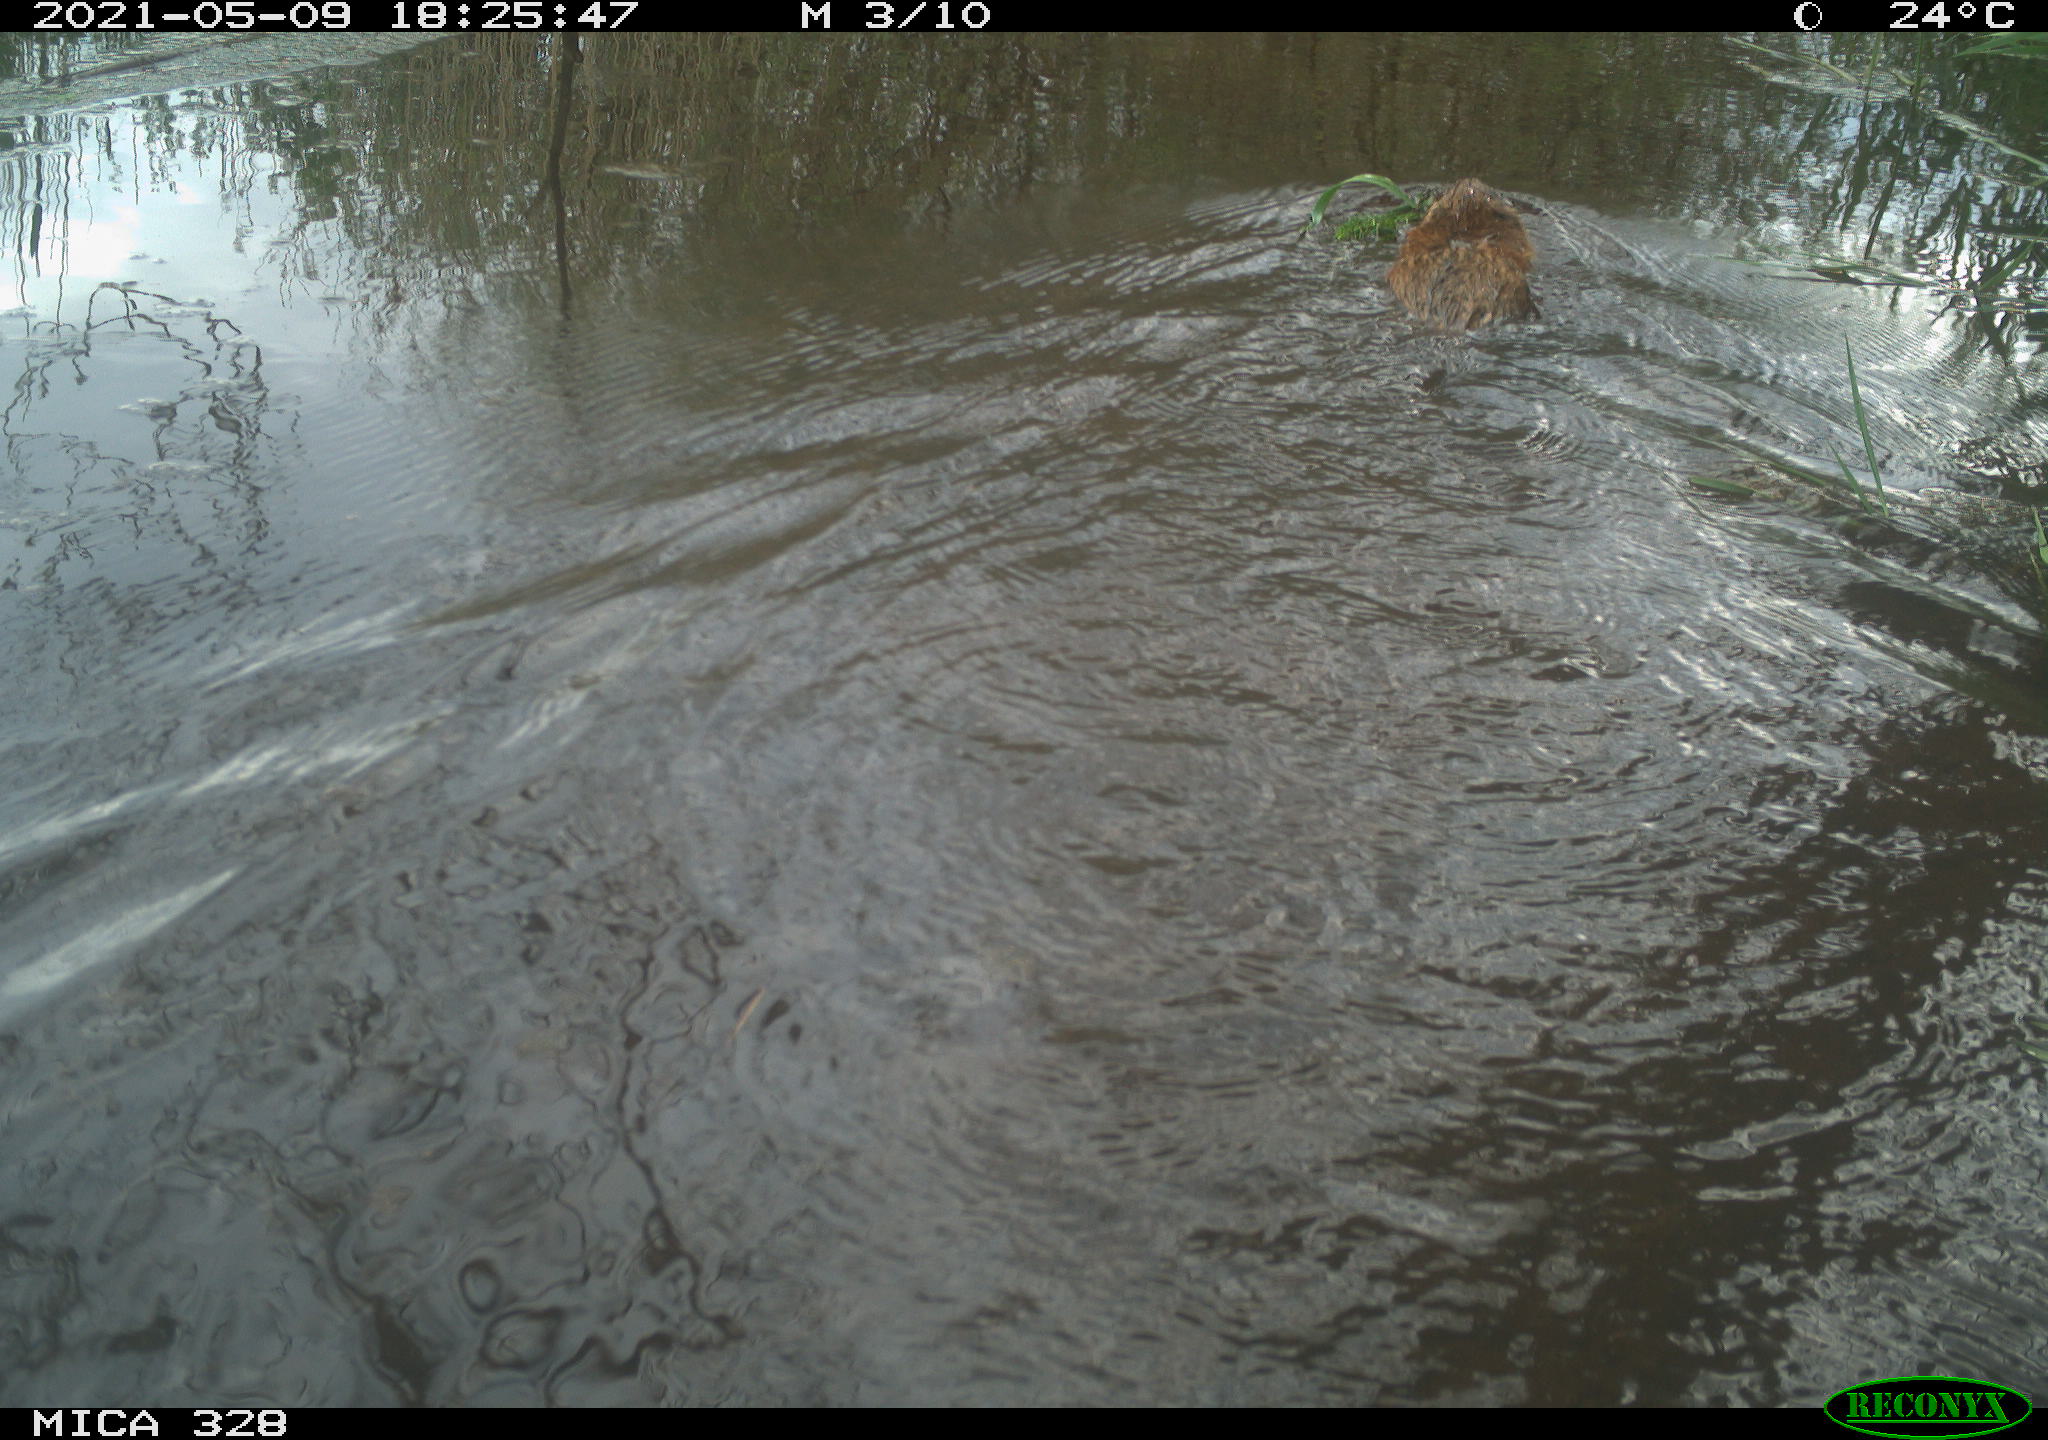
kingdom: Animalia
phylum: Chordata
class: Mammalia
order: Rodentia
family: Cricetidae
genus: Ondatra
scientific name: Ondatra zibethicus
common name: Muskrat
